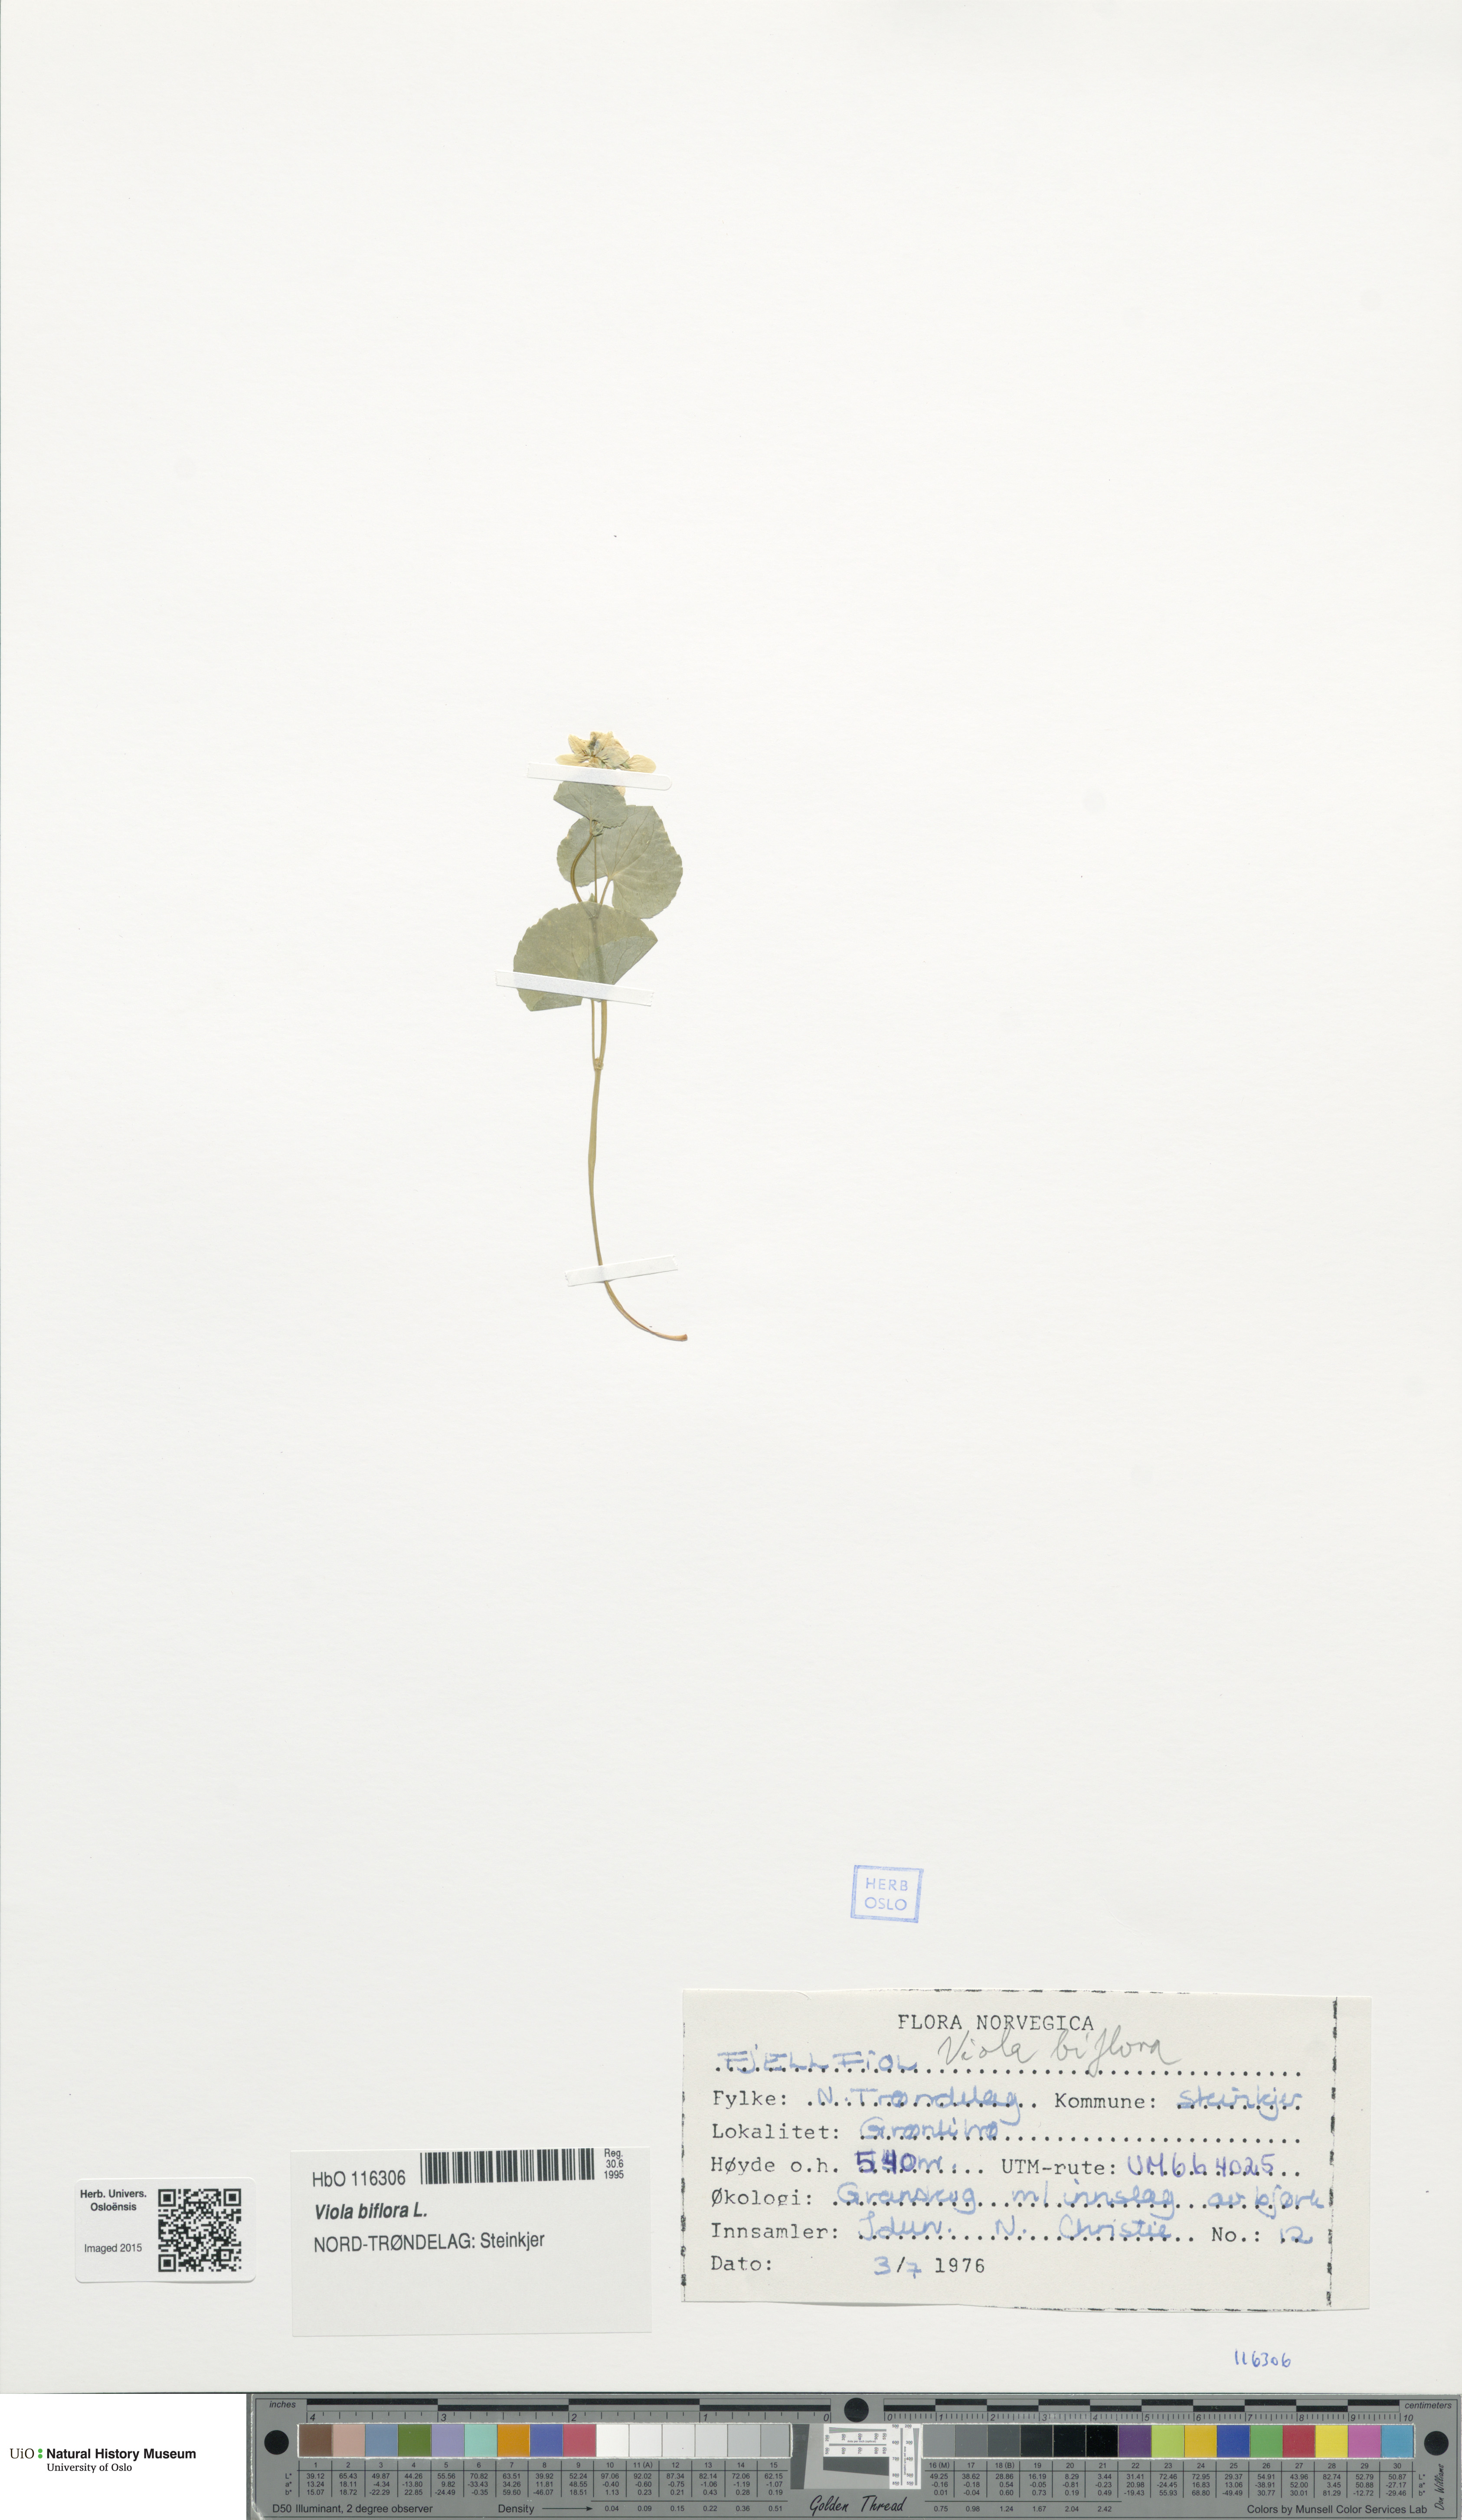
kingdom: Plantae
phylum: Tracheophyta
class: Magnoliopsida
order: Malpighiales
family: Violaceae
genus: Viola
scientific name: Viola biflora
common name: Alpine yellow violet
